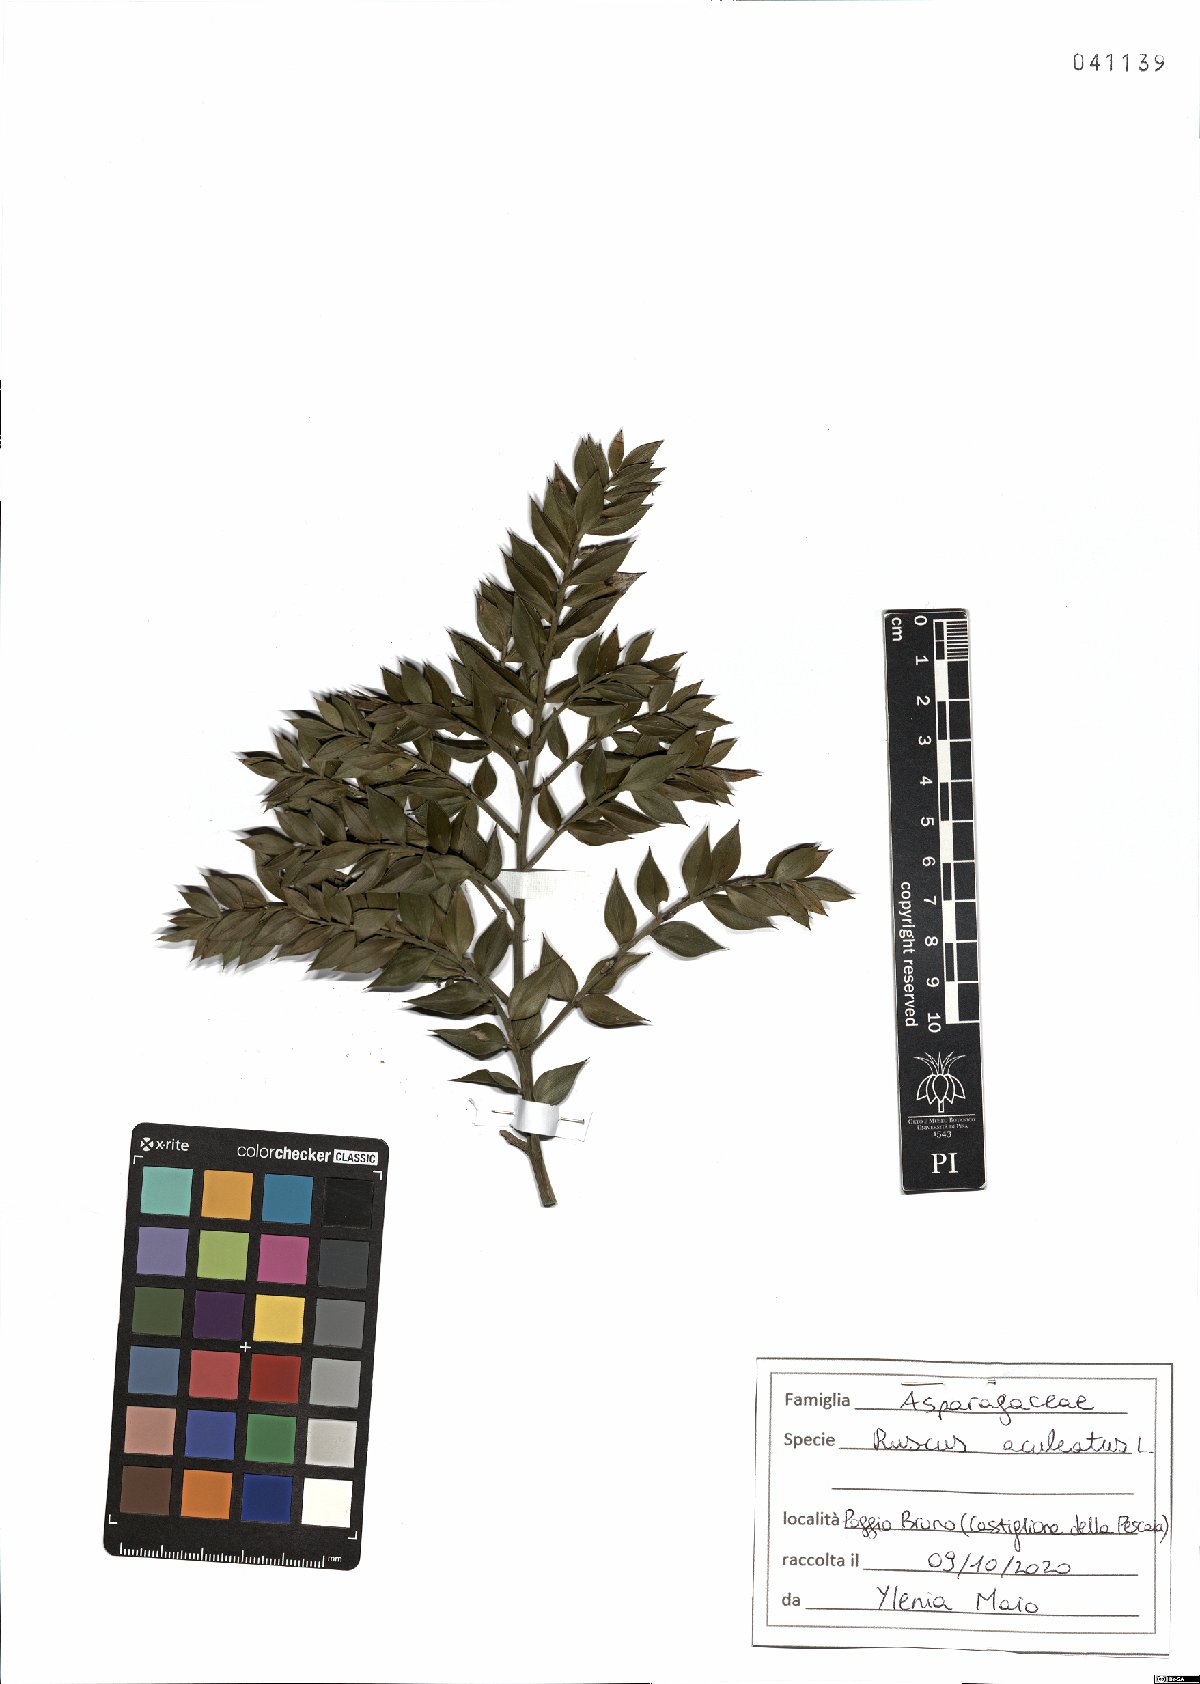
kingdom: Plantae
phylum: Tracheophyta
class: Liliopsida
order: Asparagales
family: Asparagaceae
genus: Ruscus
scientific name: Ruscus aculeatus
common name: Butcher's-broom
